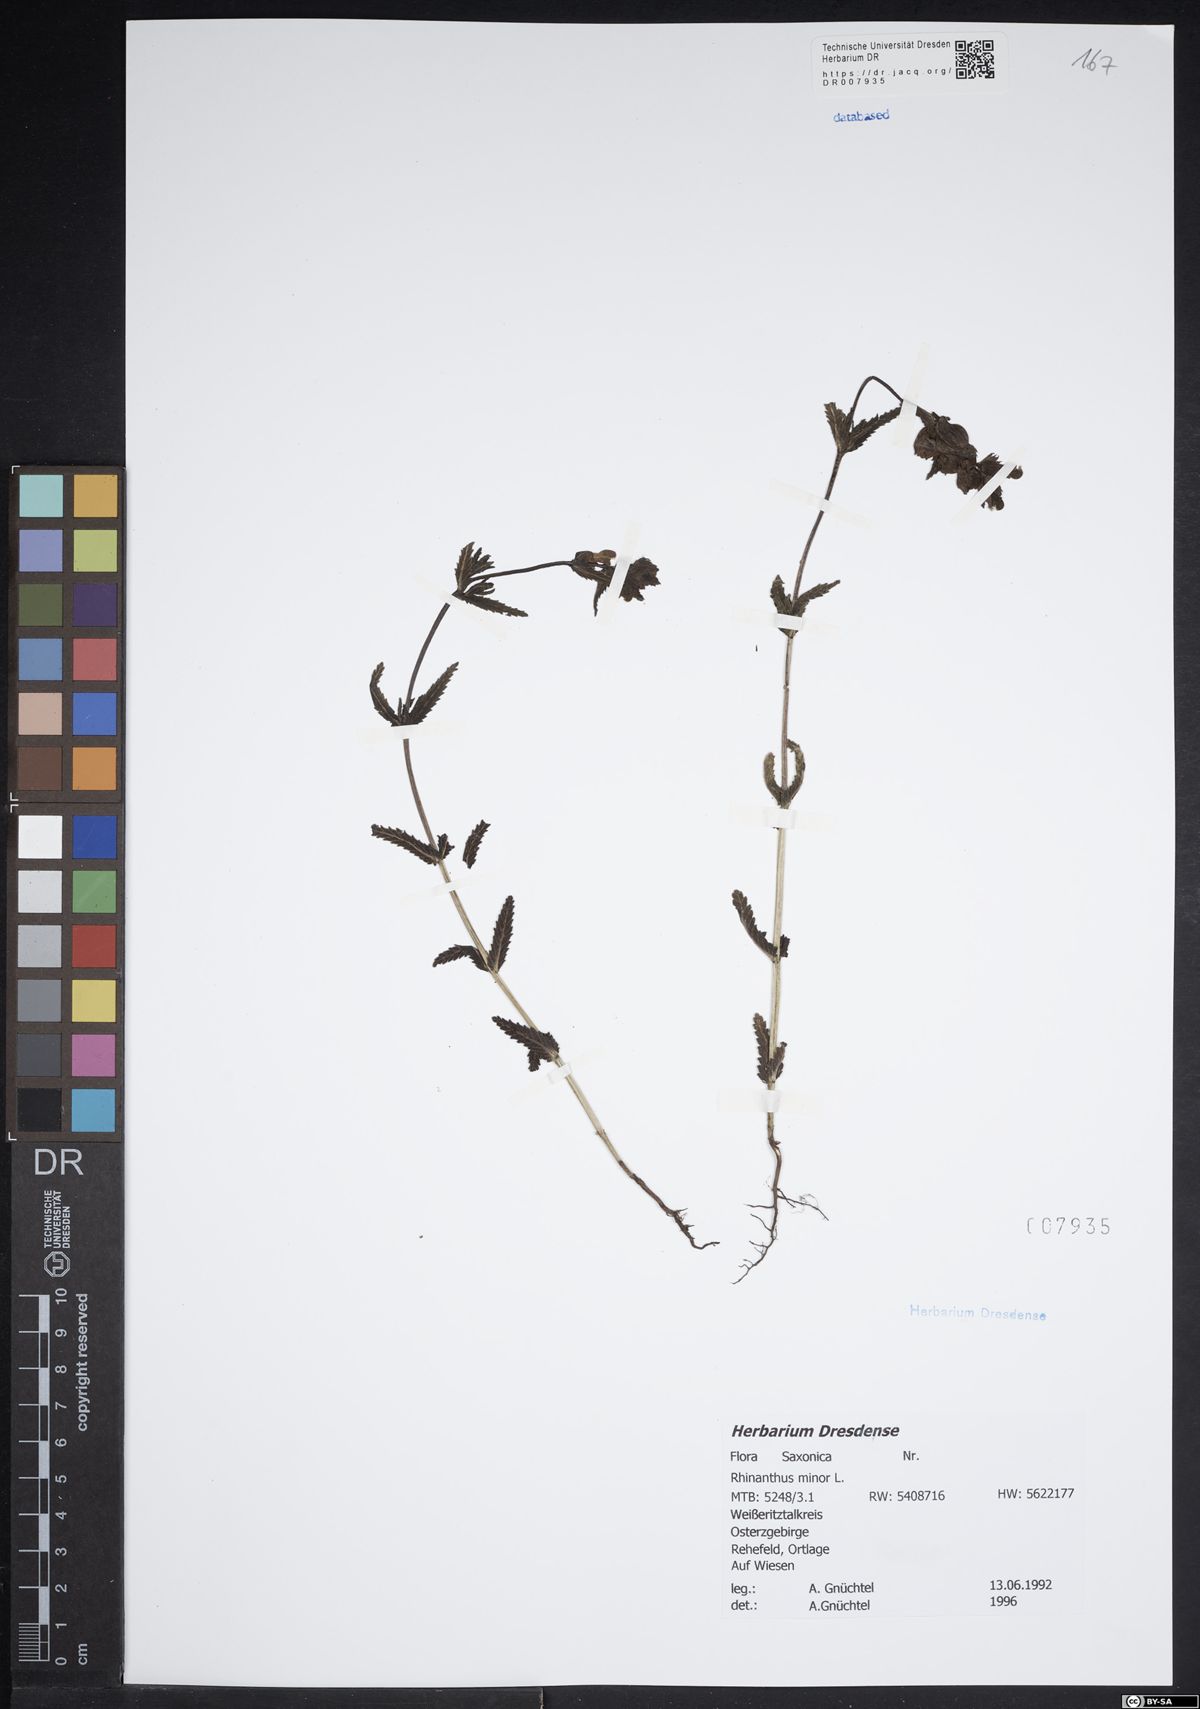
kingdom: Plantae
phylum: Tracheophyta
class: Magnoliopsida
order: Lamiales
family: Orobanchaceae
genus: Rhinanthus
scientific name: Rhinanthus minor
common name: Yellow-rattle
